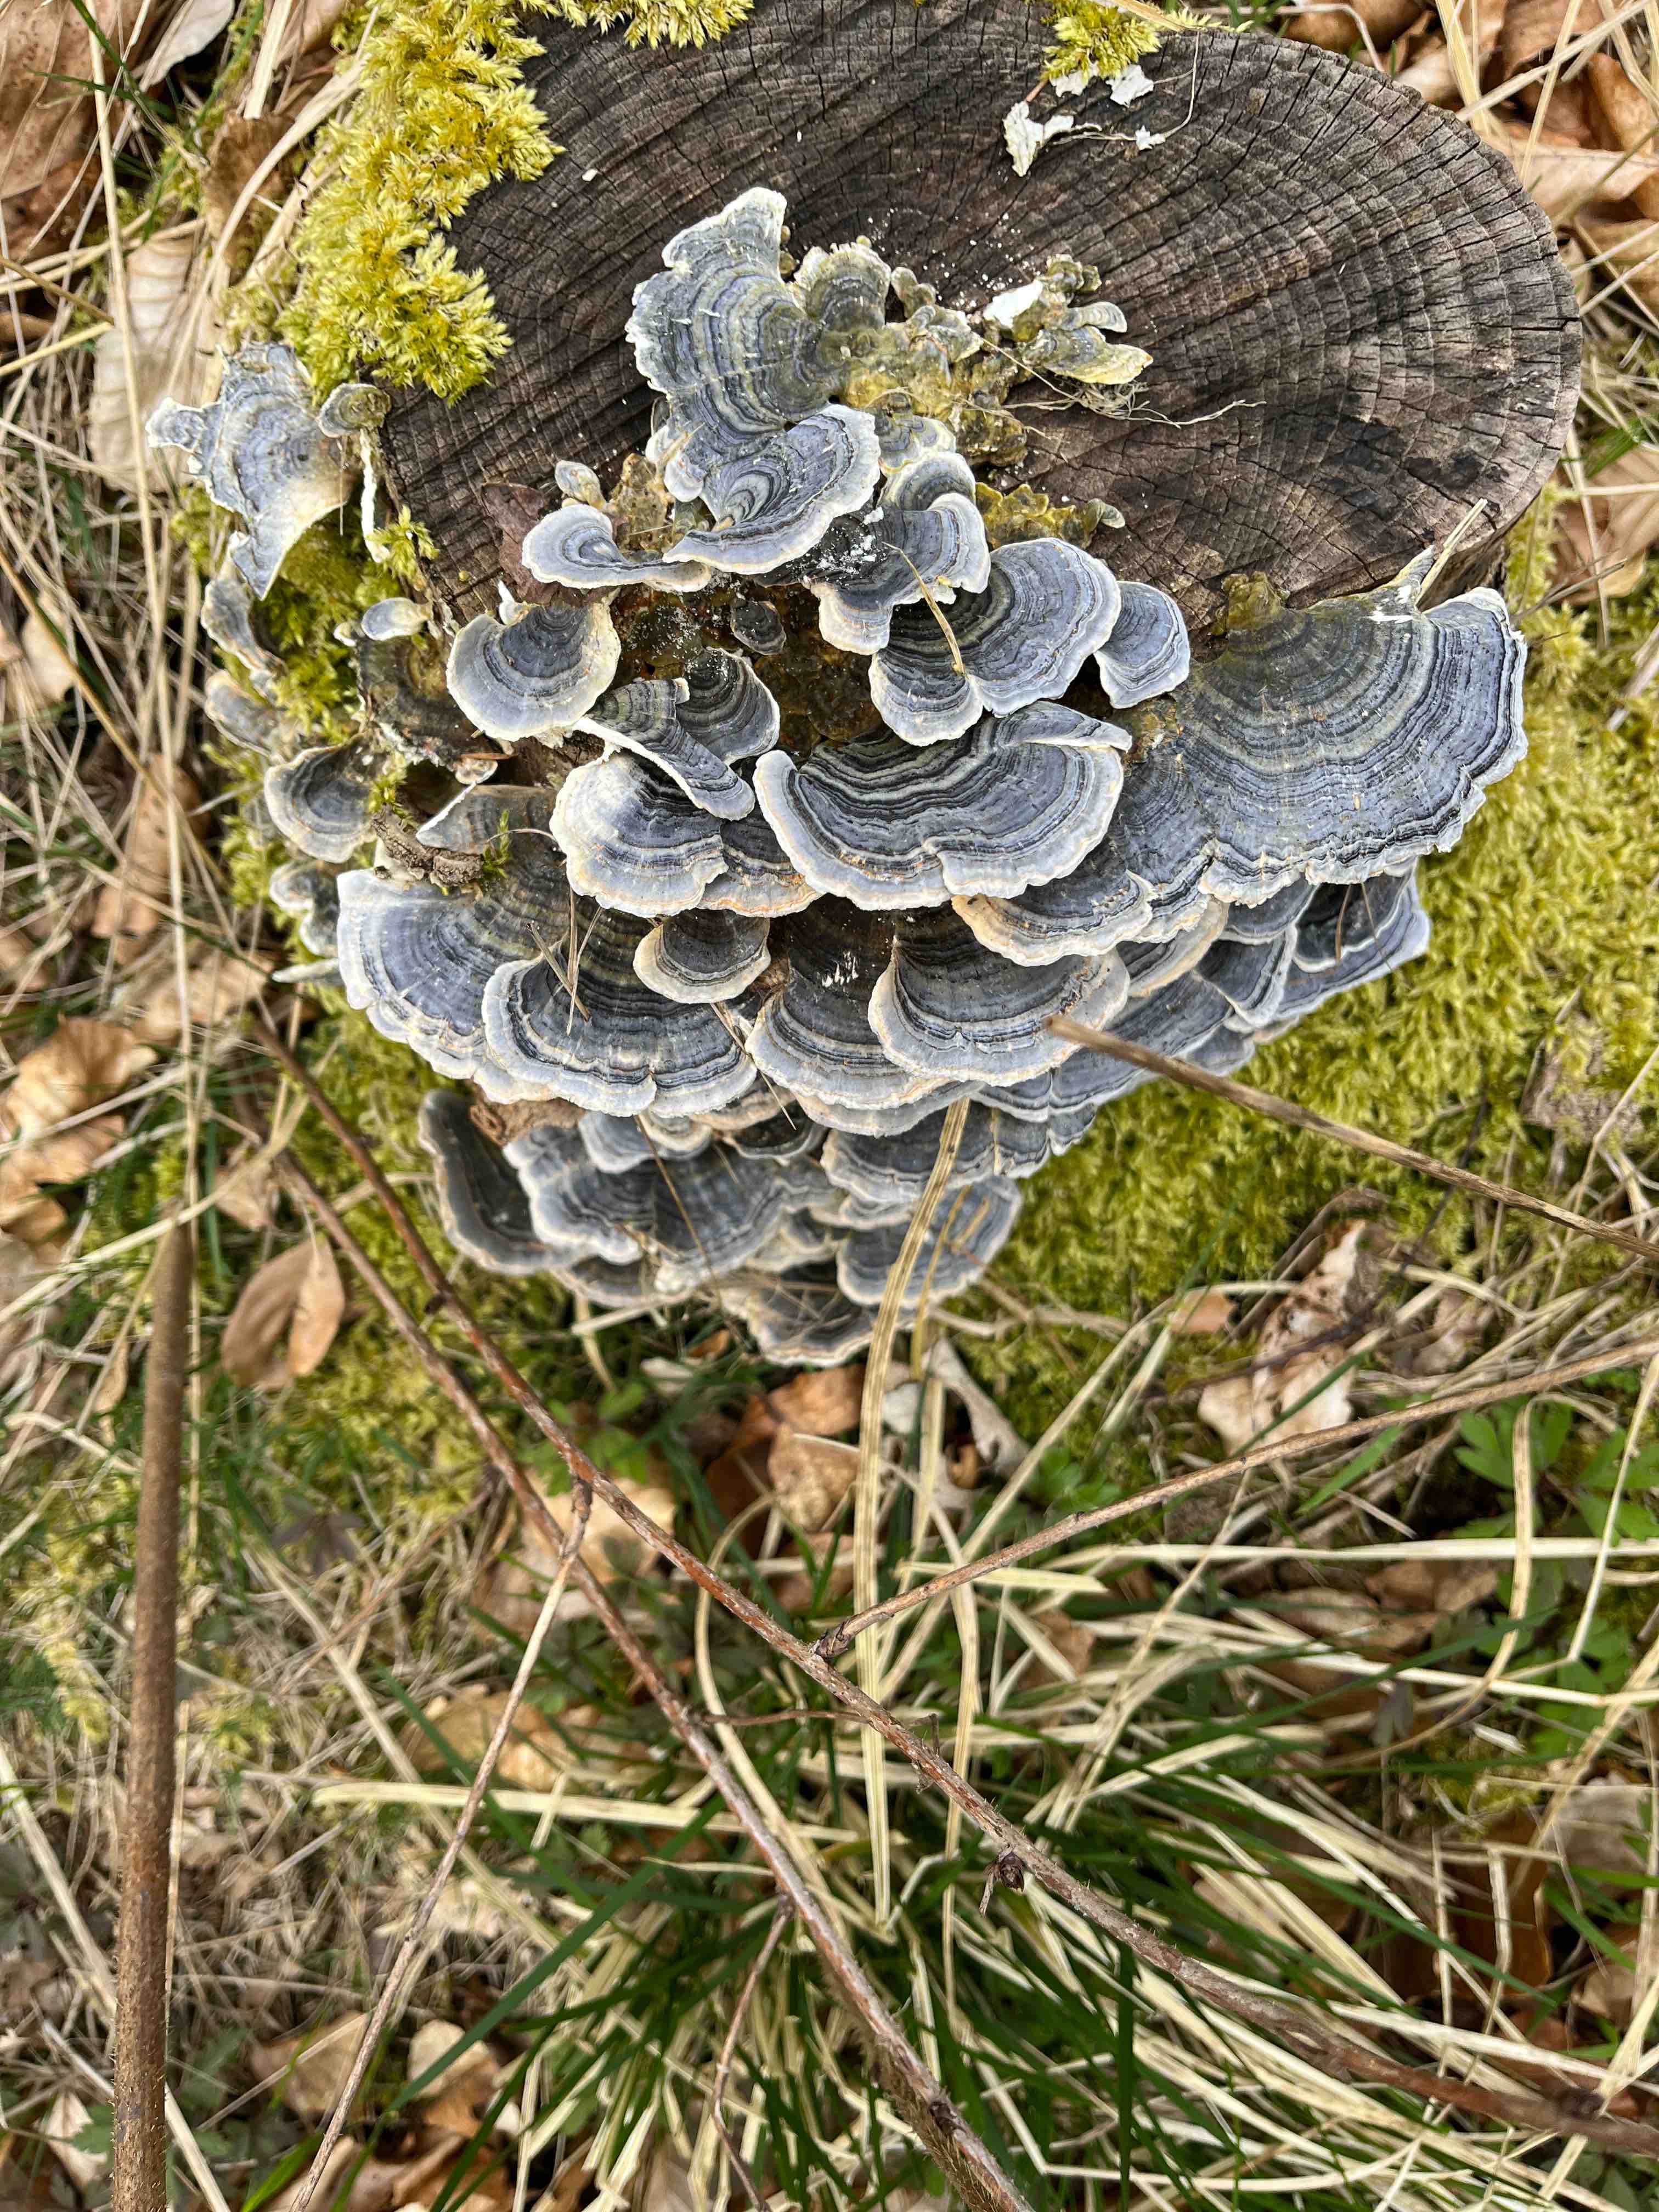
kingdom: Fungi
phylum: Basidiomycota
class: Agaricomycetes
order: Polyporales
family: Polyporaceae
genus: Trametes
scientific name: Trametes versicolor
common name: broget læderporesvamp
